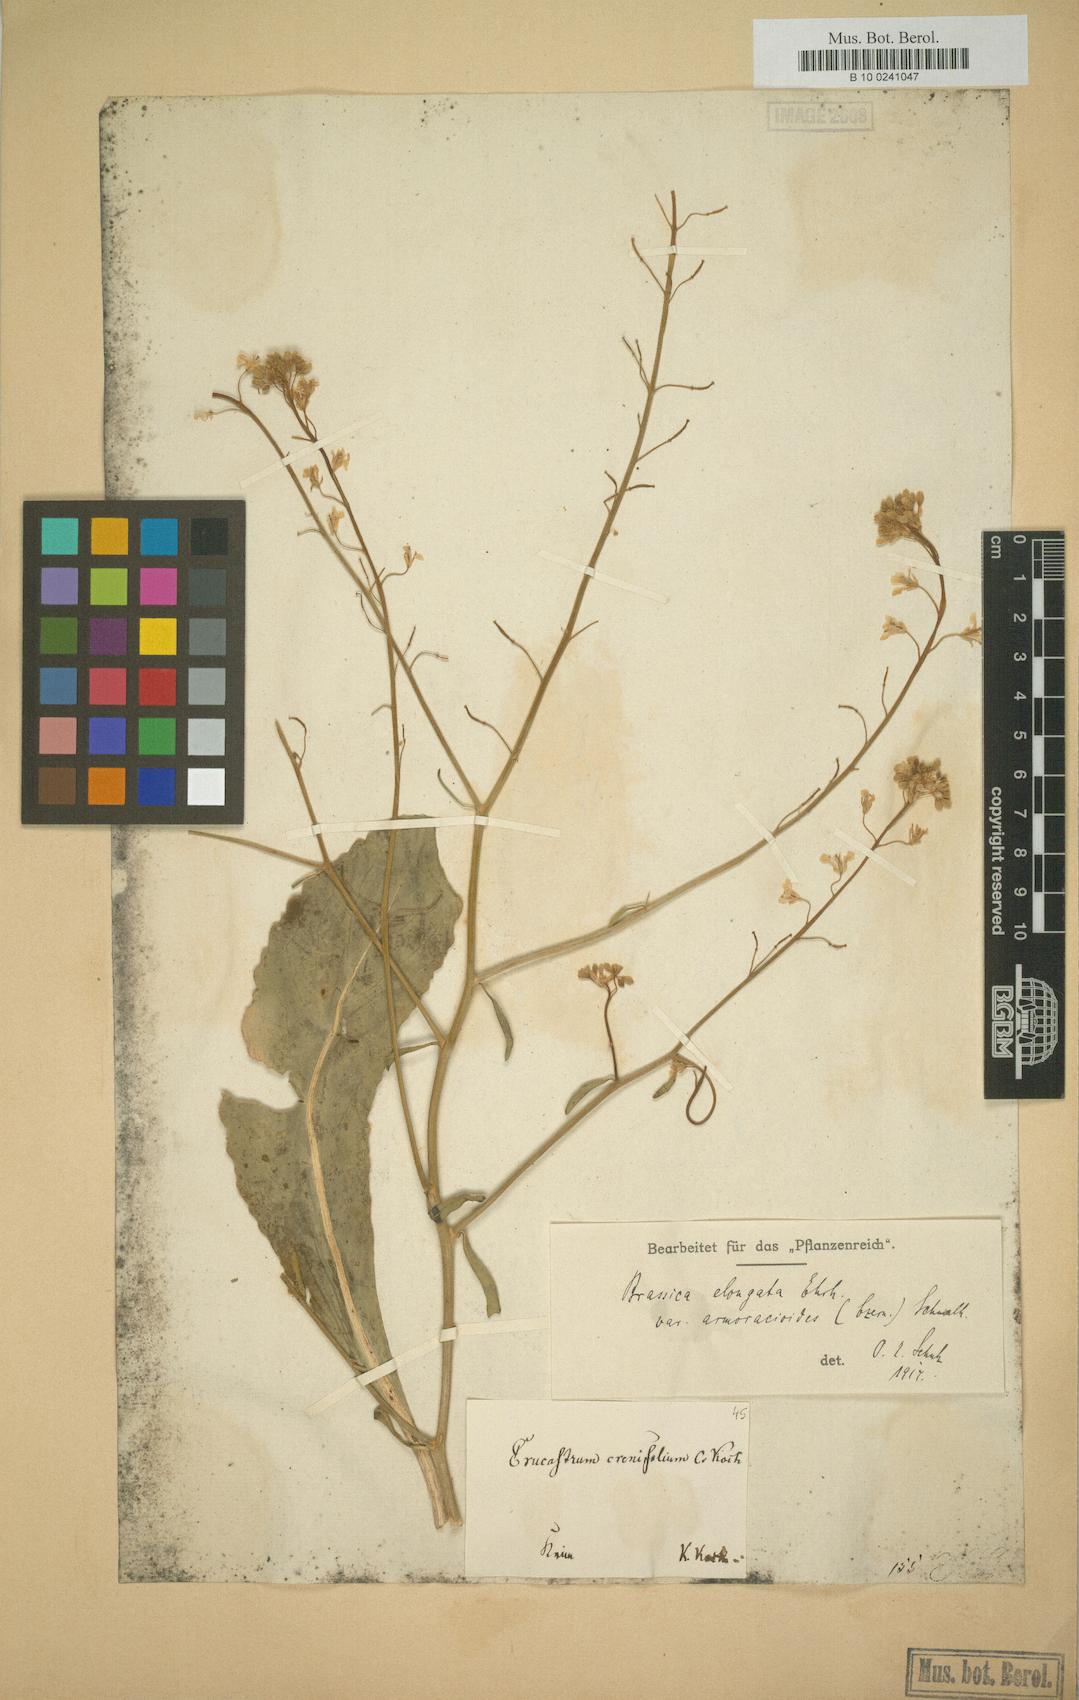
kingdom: Plantae
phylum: Tracheophyta
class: Magnoliopsida
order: Brassicales
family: Brassicaceae
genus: Brassica
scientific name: Brassica elongata
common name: Long-stalked rape
